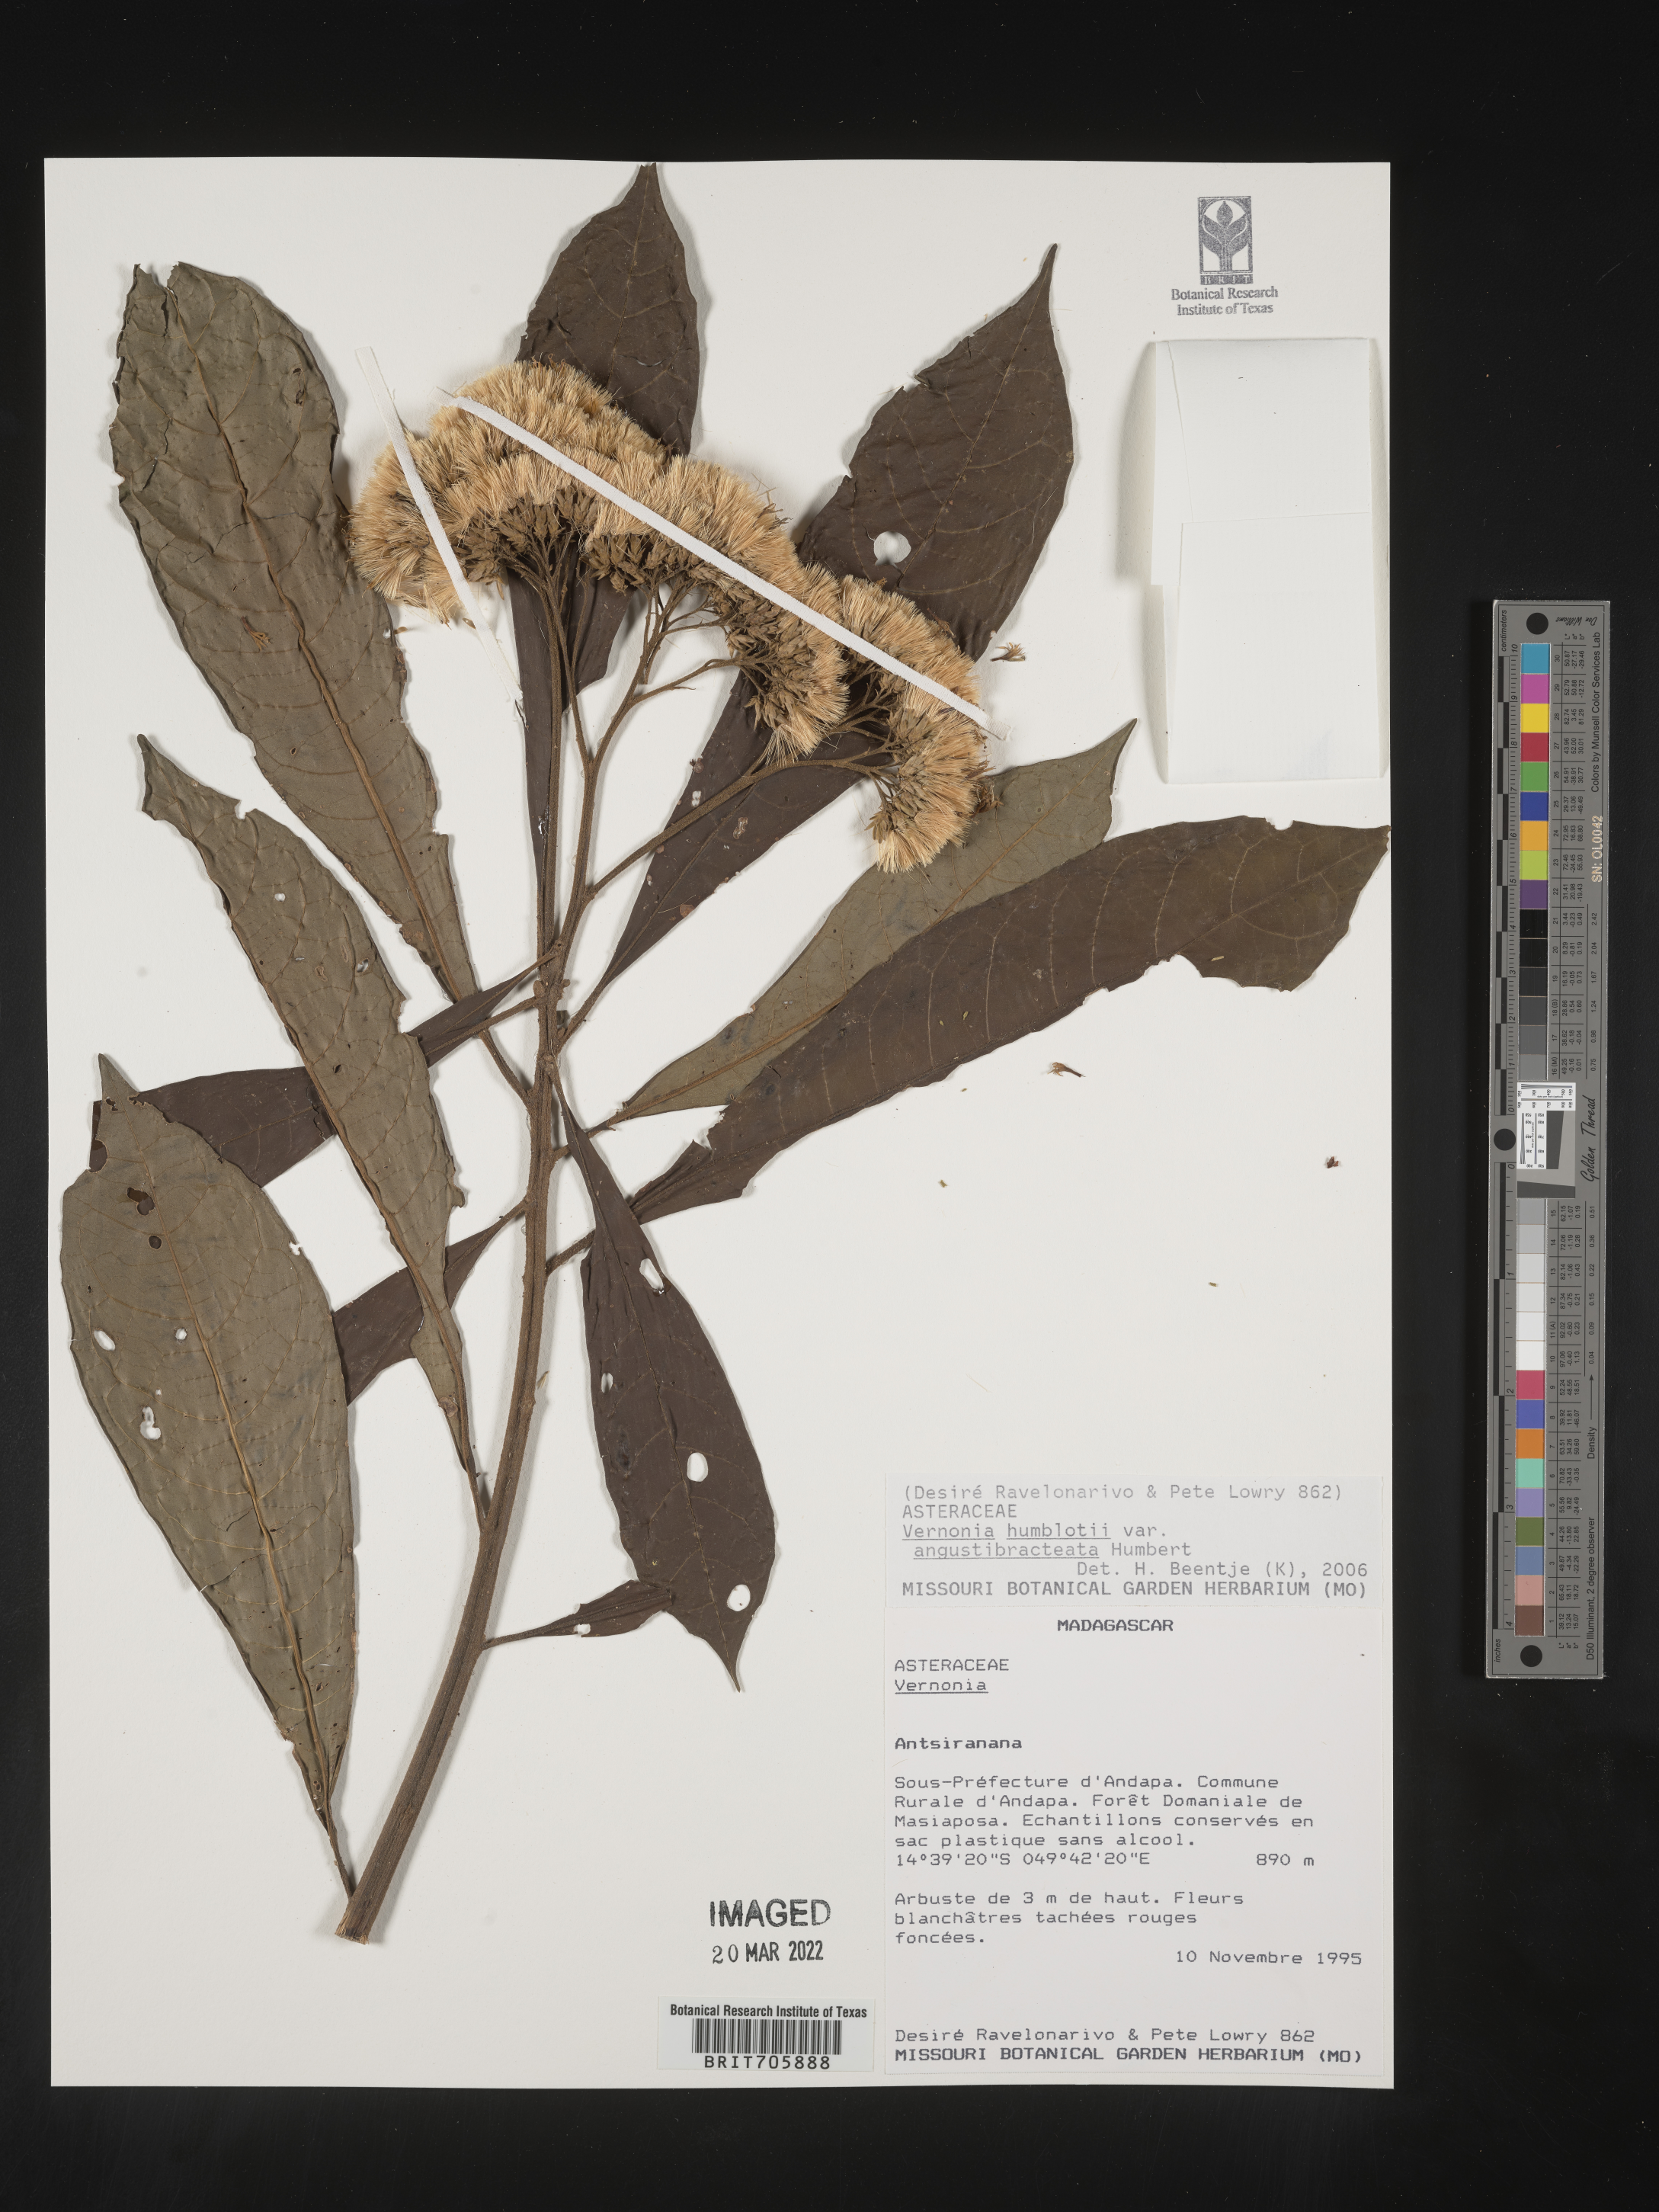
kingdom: Plantae
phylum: Tracheophyta
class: Magnoliopsida
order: Asterales
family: Asteraceae
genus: Vernonia
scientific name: Vernonia
